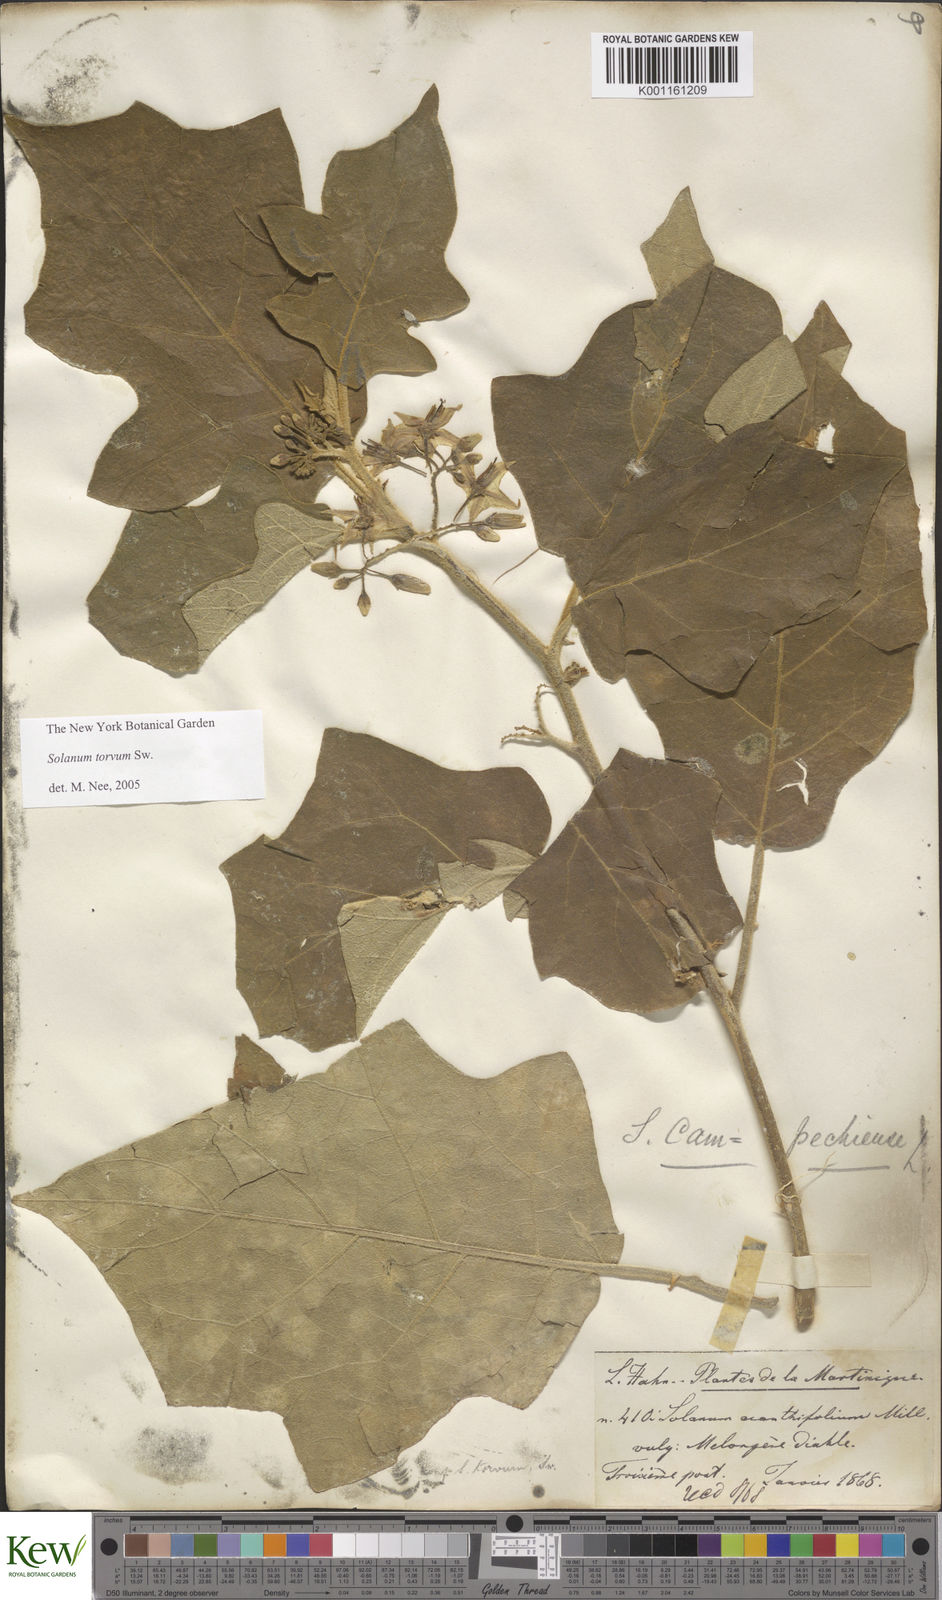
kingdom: Plantae
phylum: Tracheophyta
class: Magnoliopsida
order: Solanales
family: Solanaceae
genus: Solanum
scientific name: Solanum torvum
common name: Turkey berry
